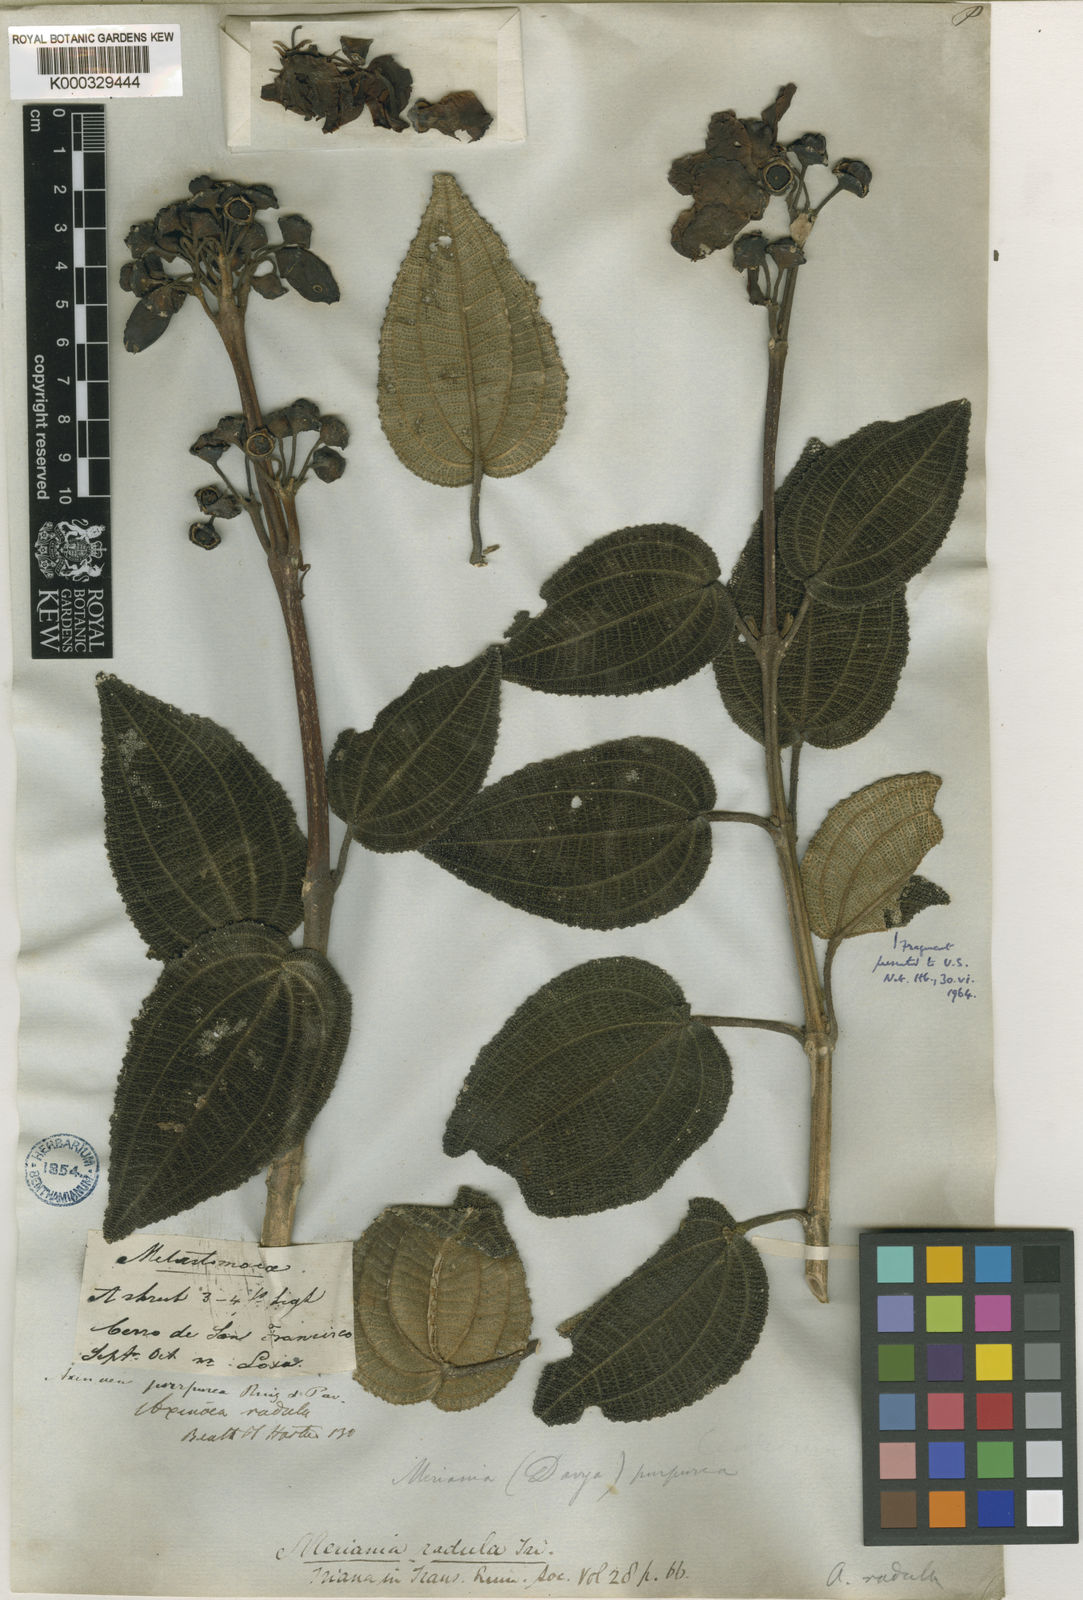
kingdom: Plantae
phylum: Tracheophyta
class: Magnoliopsida
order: Myrtales
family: Melastomataceae
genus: Meriania
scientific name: Meriania radula
